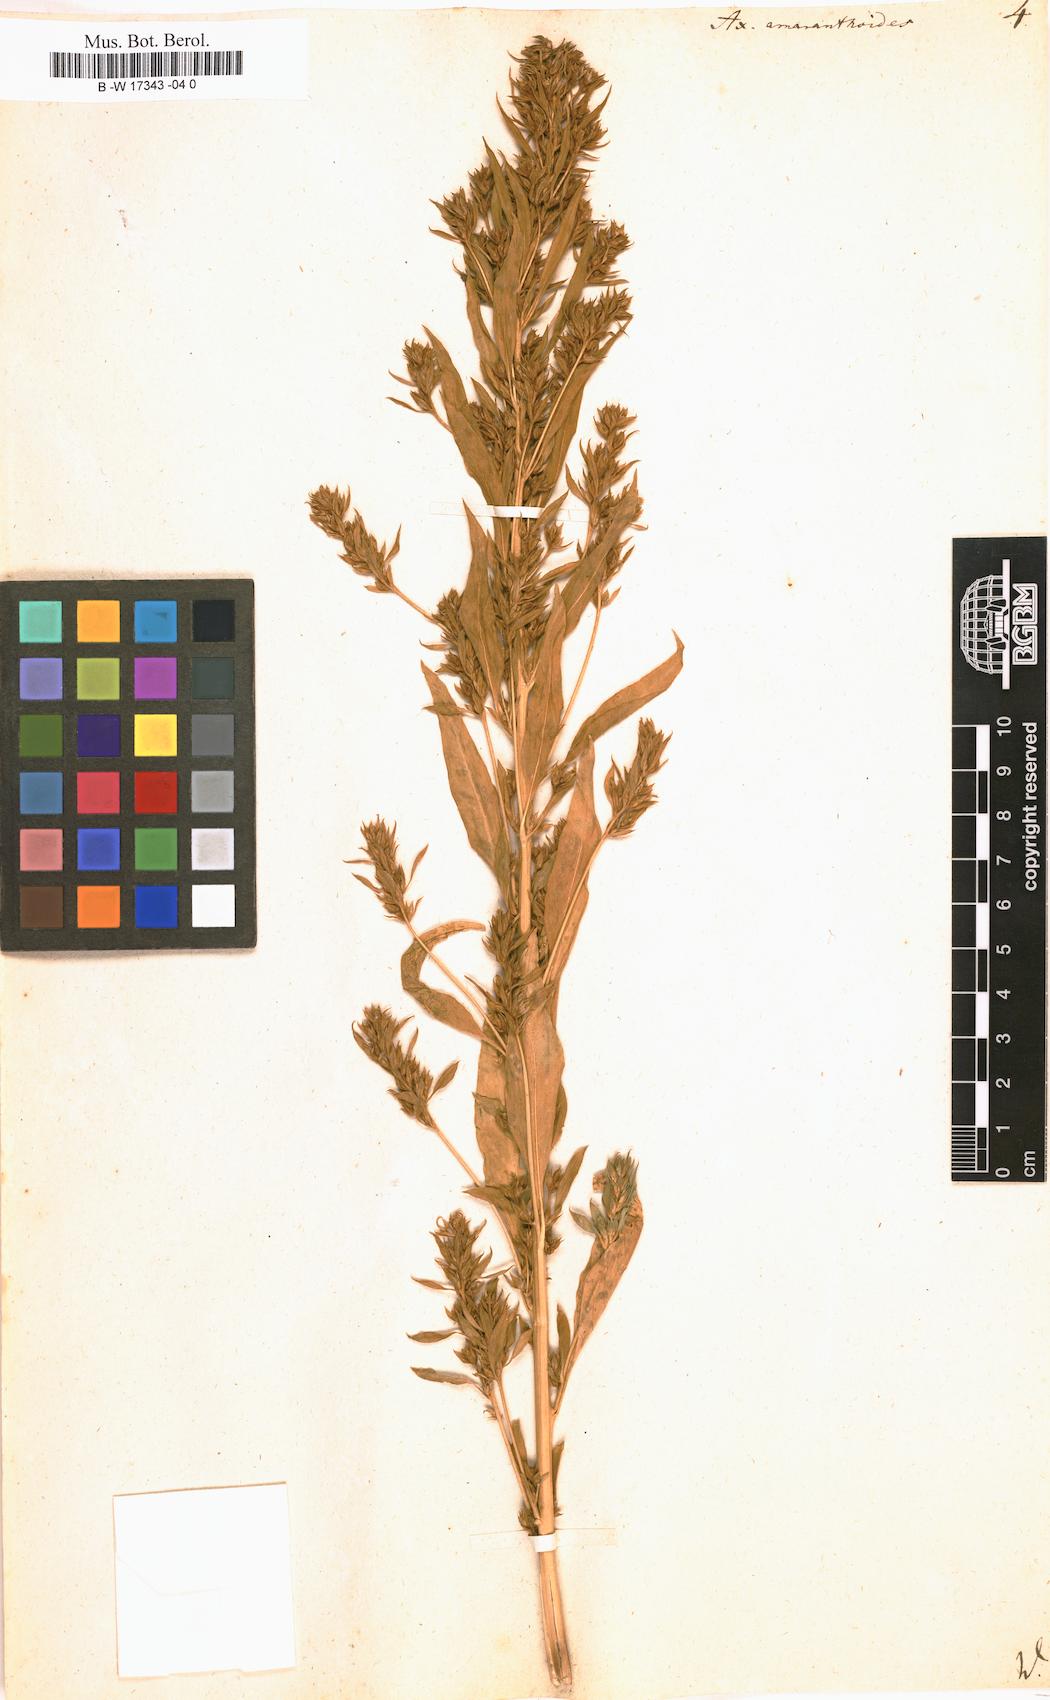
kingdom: Plantae
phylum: Tracheophyta
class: Magnoliopsida
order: Caryophyllales
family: Amaranthaceae
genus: Axyris
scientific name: Axyris amaranthoides
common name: Russian pigweed
